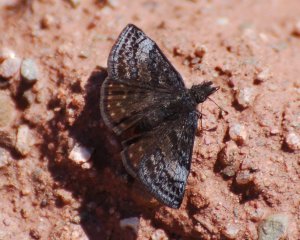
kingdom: Animalia
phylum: Arthropoda
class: Insecta
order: Lepidoptera
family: Hesperiidae
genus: Erynnis
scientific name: Erynnis icelus
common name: Dreamy Duskywing
